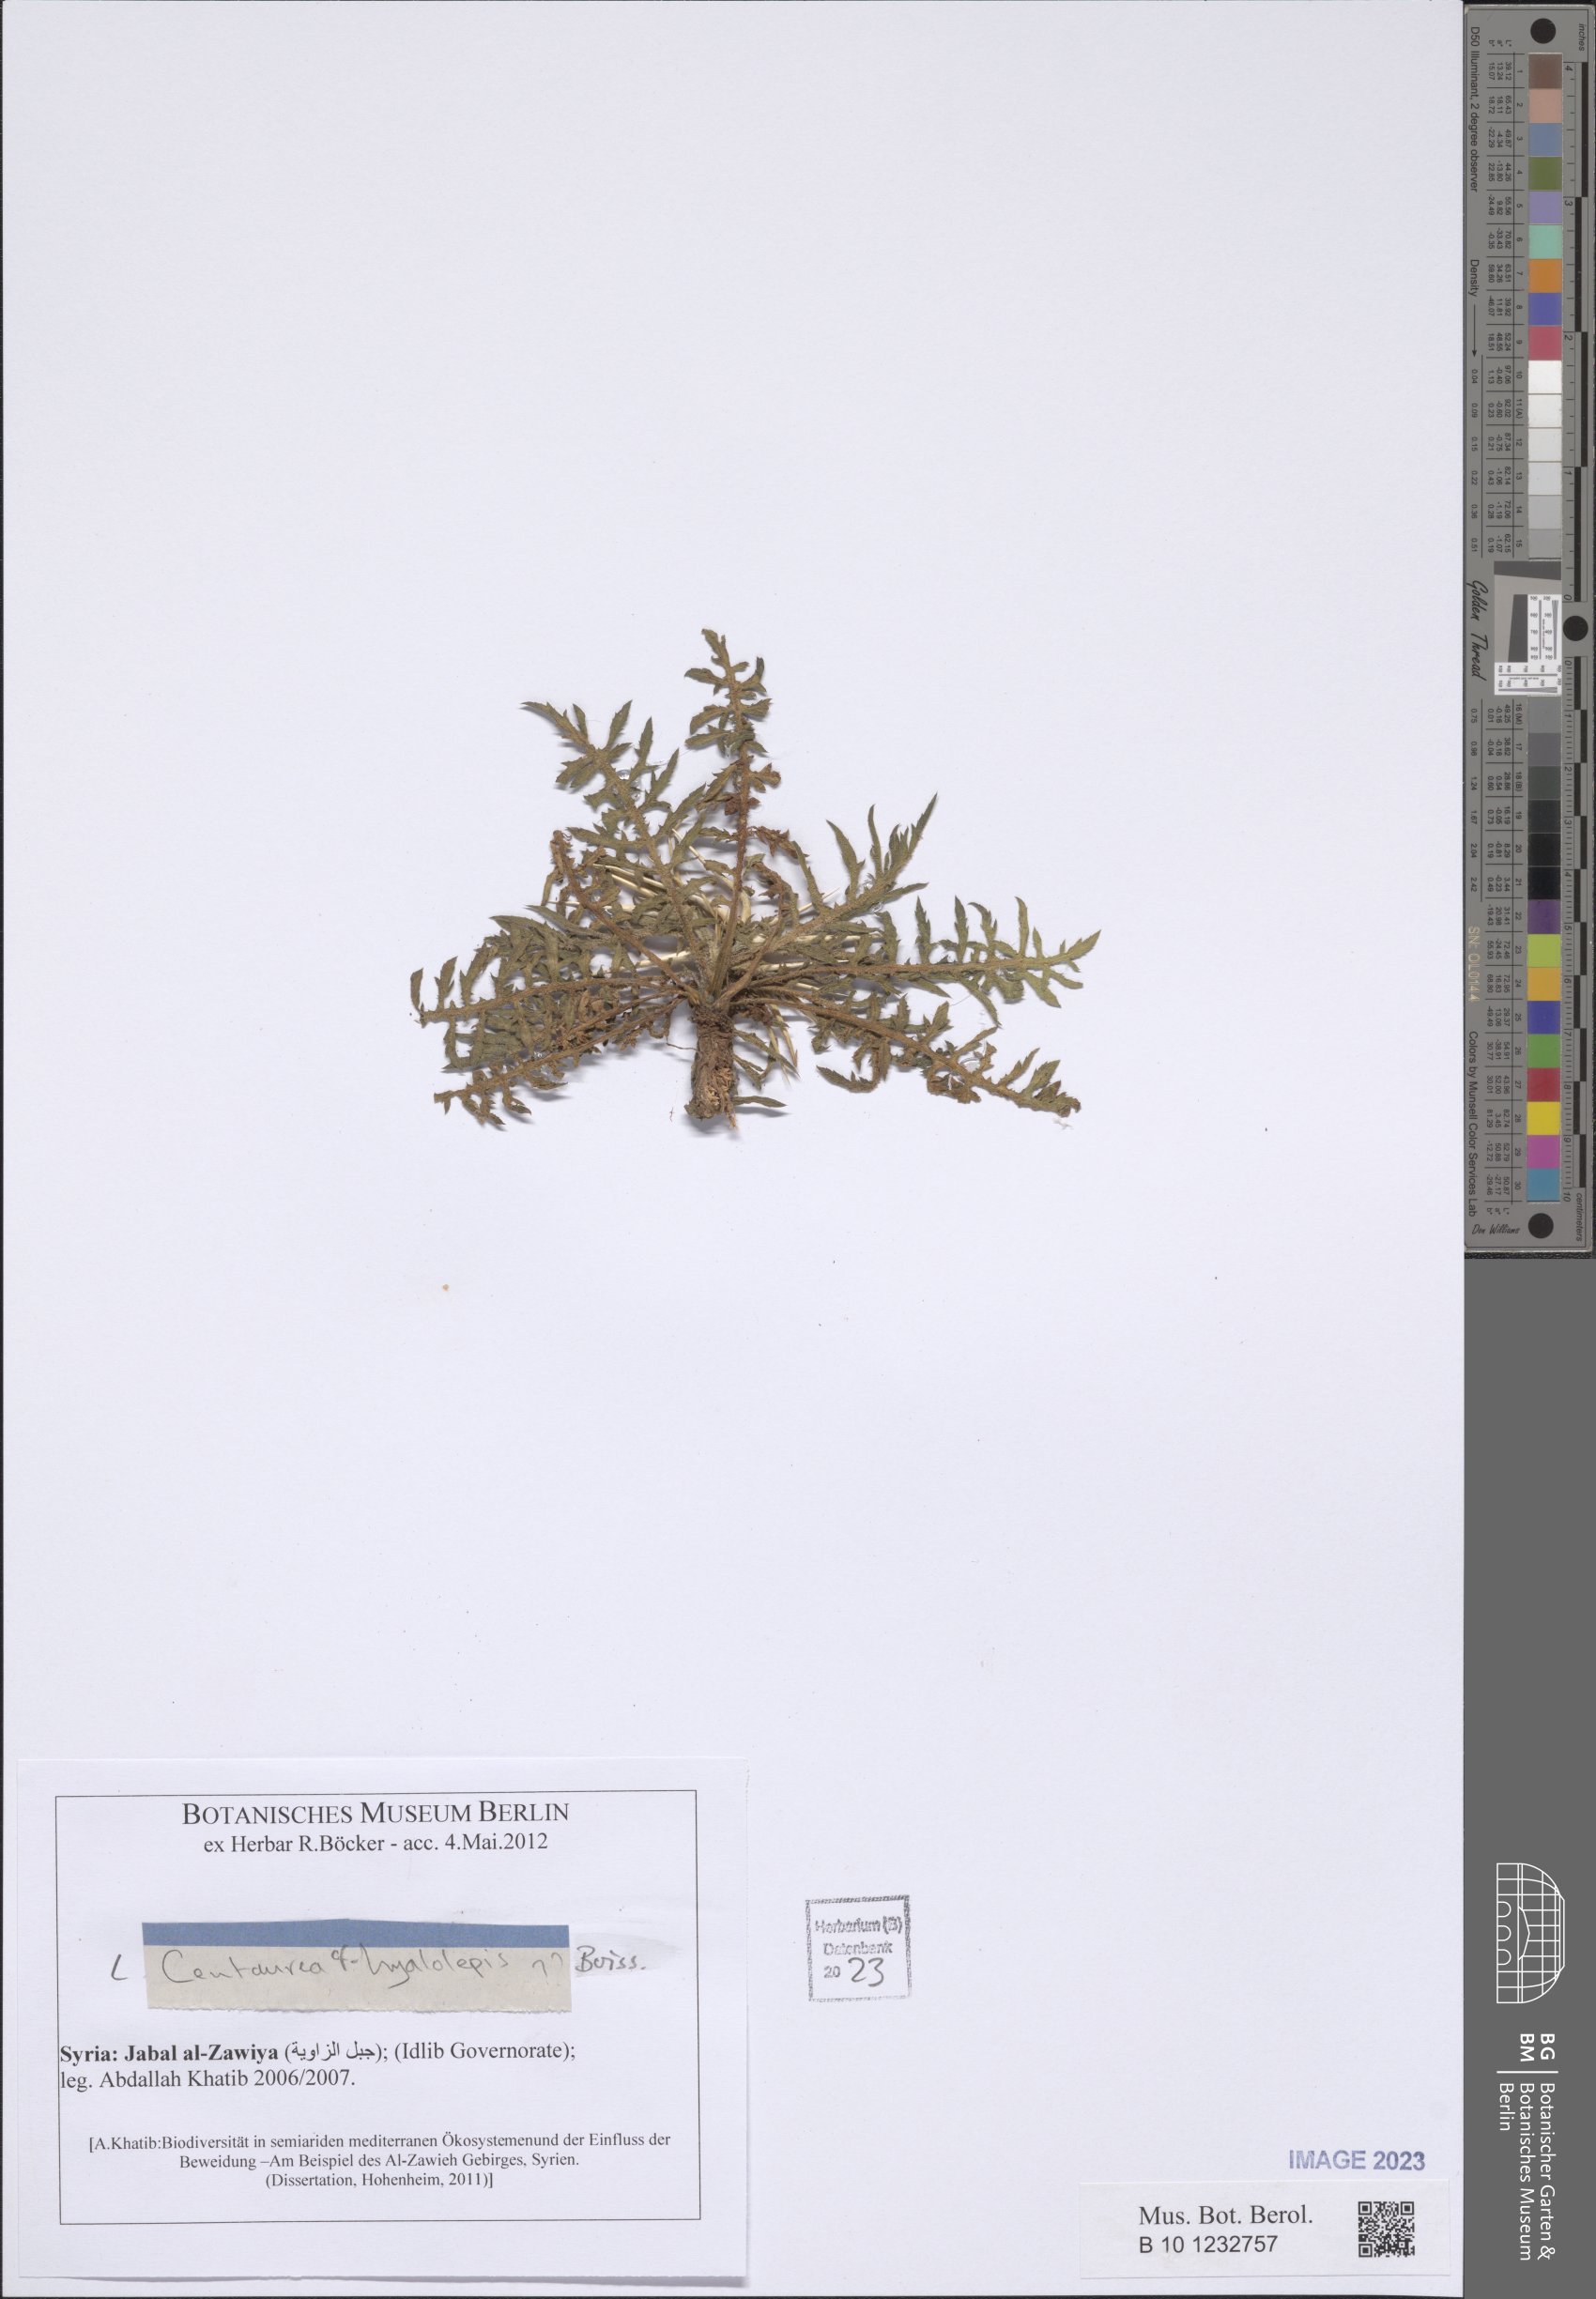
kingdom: Plantae
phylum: Tracheophyta
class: Magnoliopsida
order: Asterales
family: Asteraceae
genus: Centaurea
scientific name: Centaurea hyalolepis
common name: Eastern star-thistle
